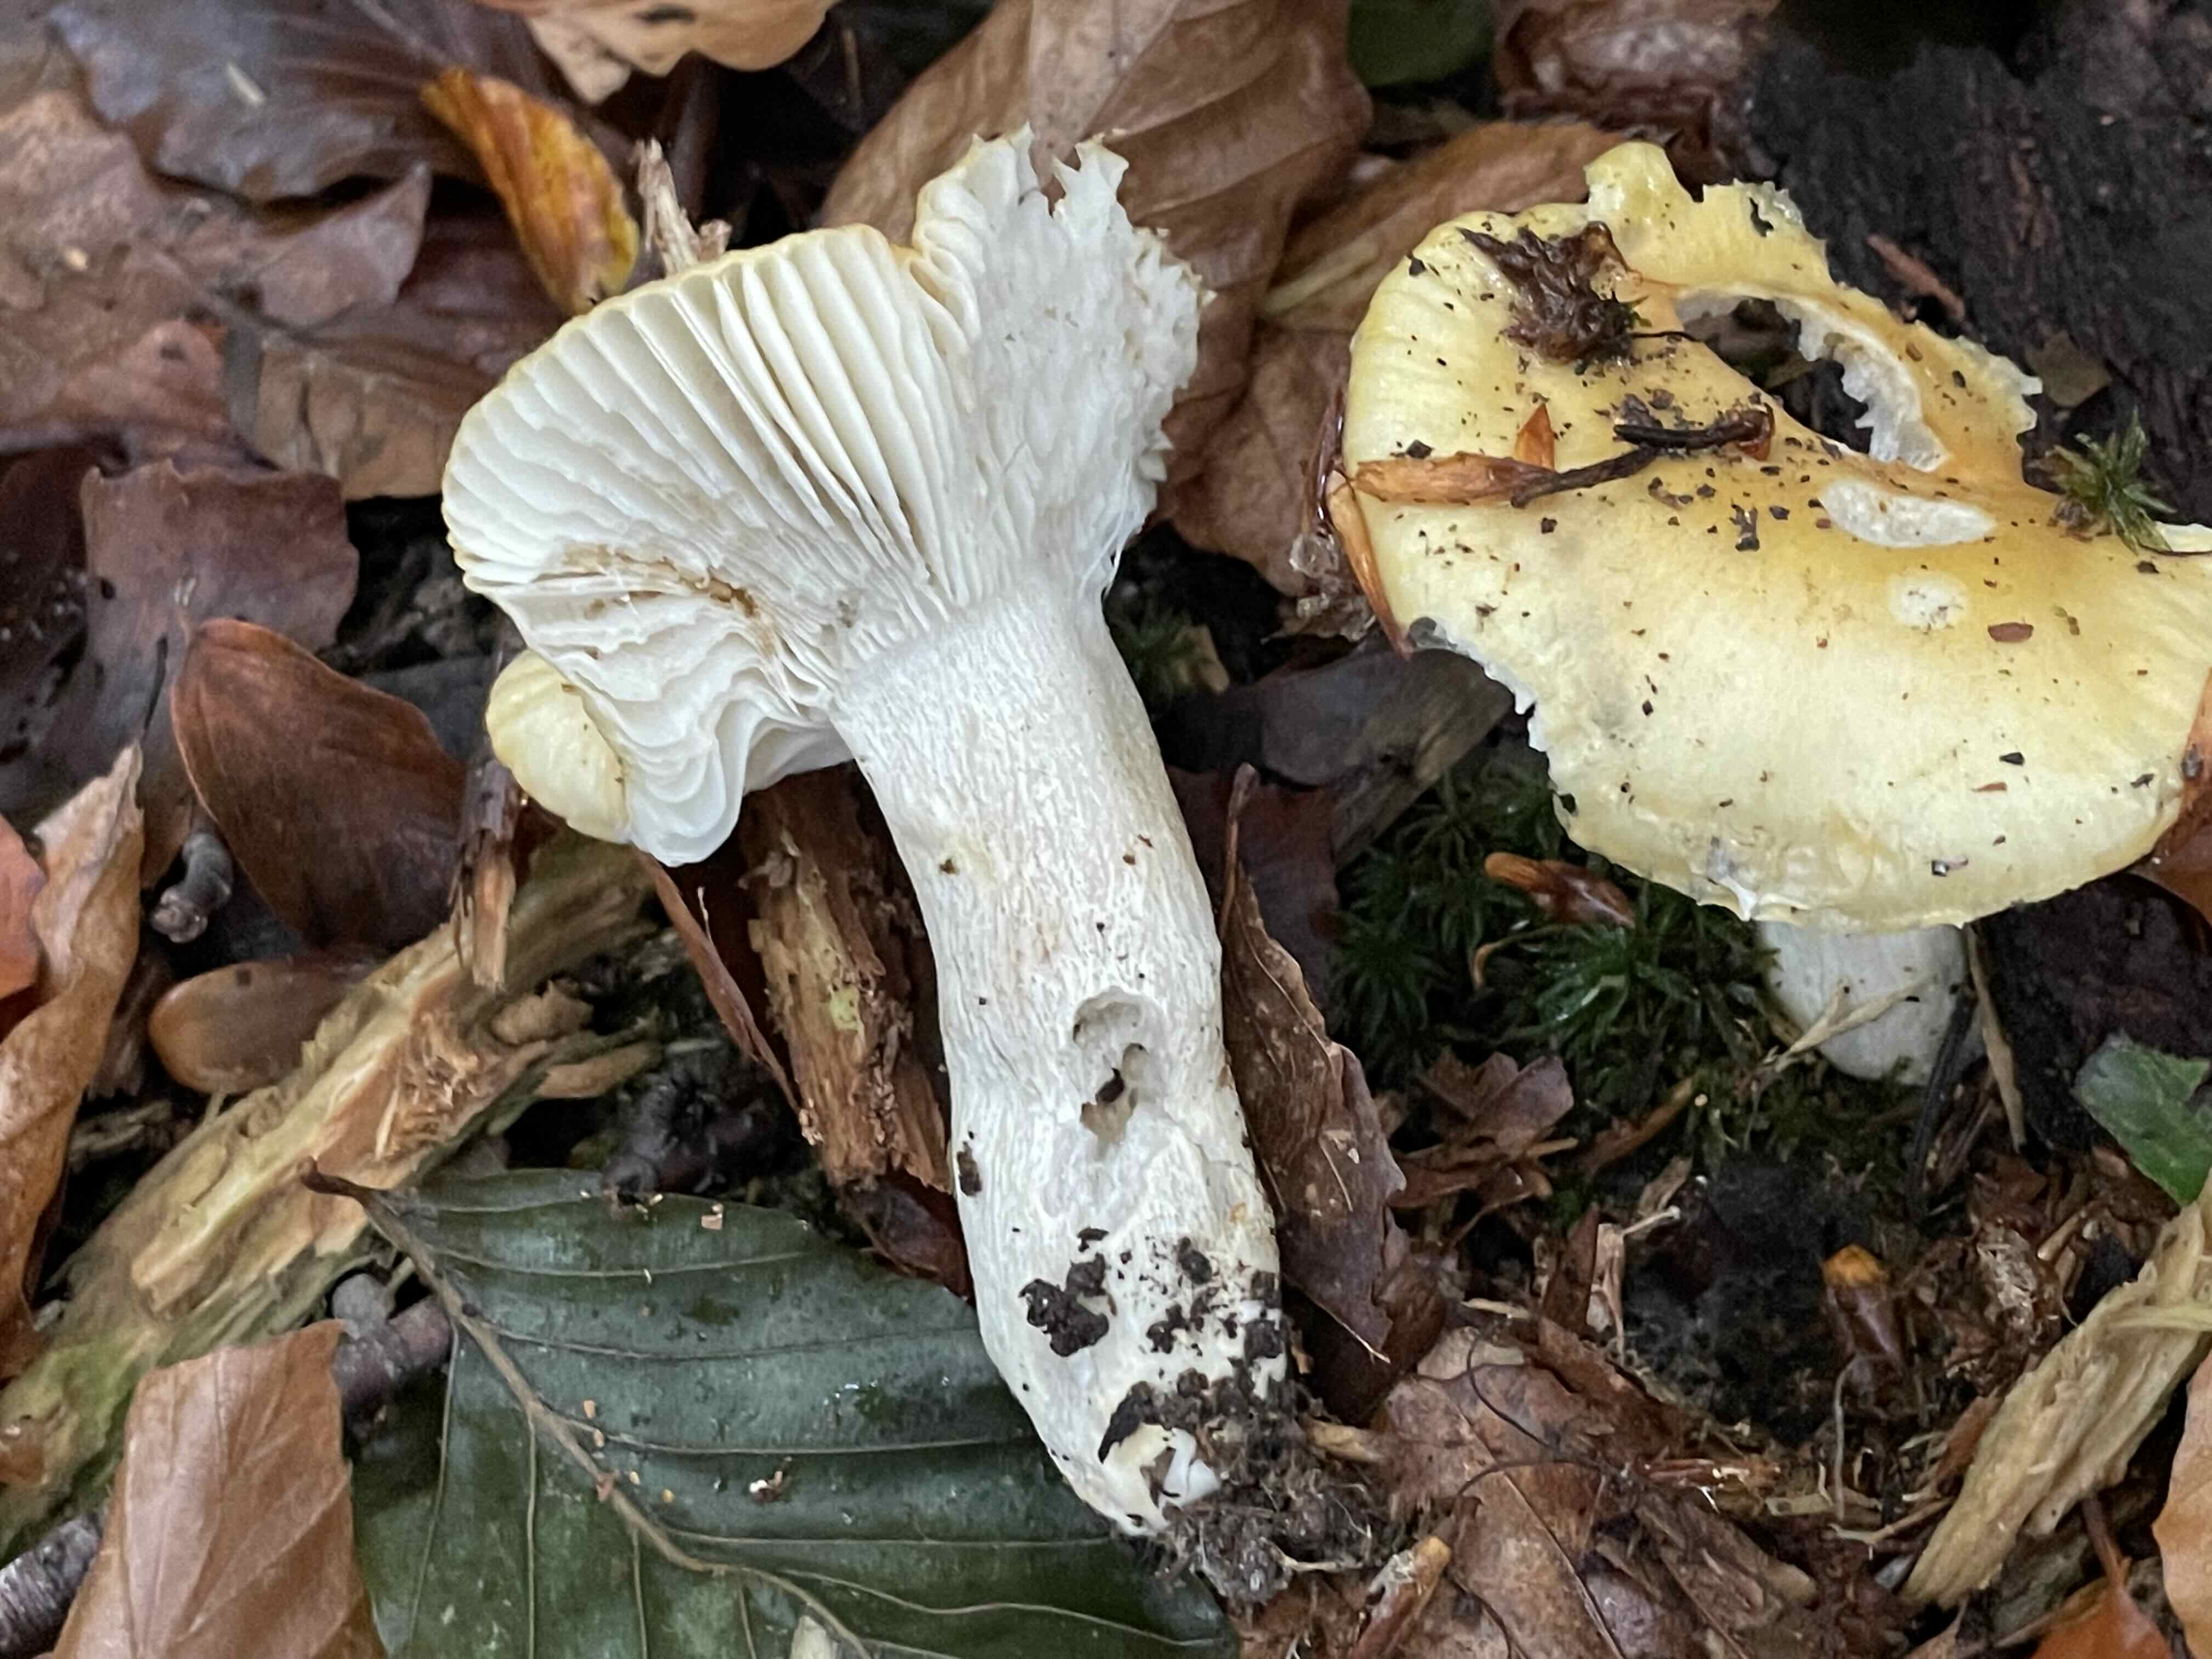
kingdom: Fungi
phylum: Basidiomycota
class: Agaricomycetes
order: Russulales
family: Russulaceae
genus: Russula
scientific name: Russula ochroleuca
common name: okkergul skørhat
